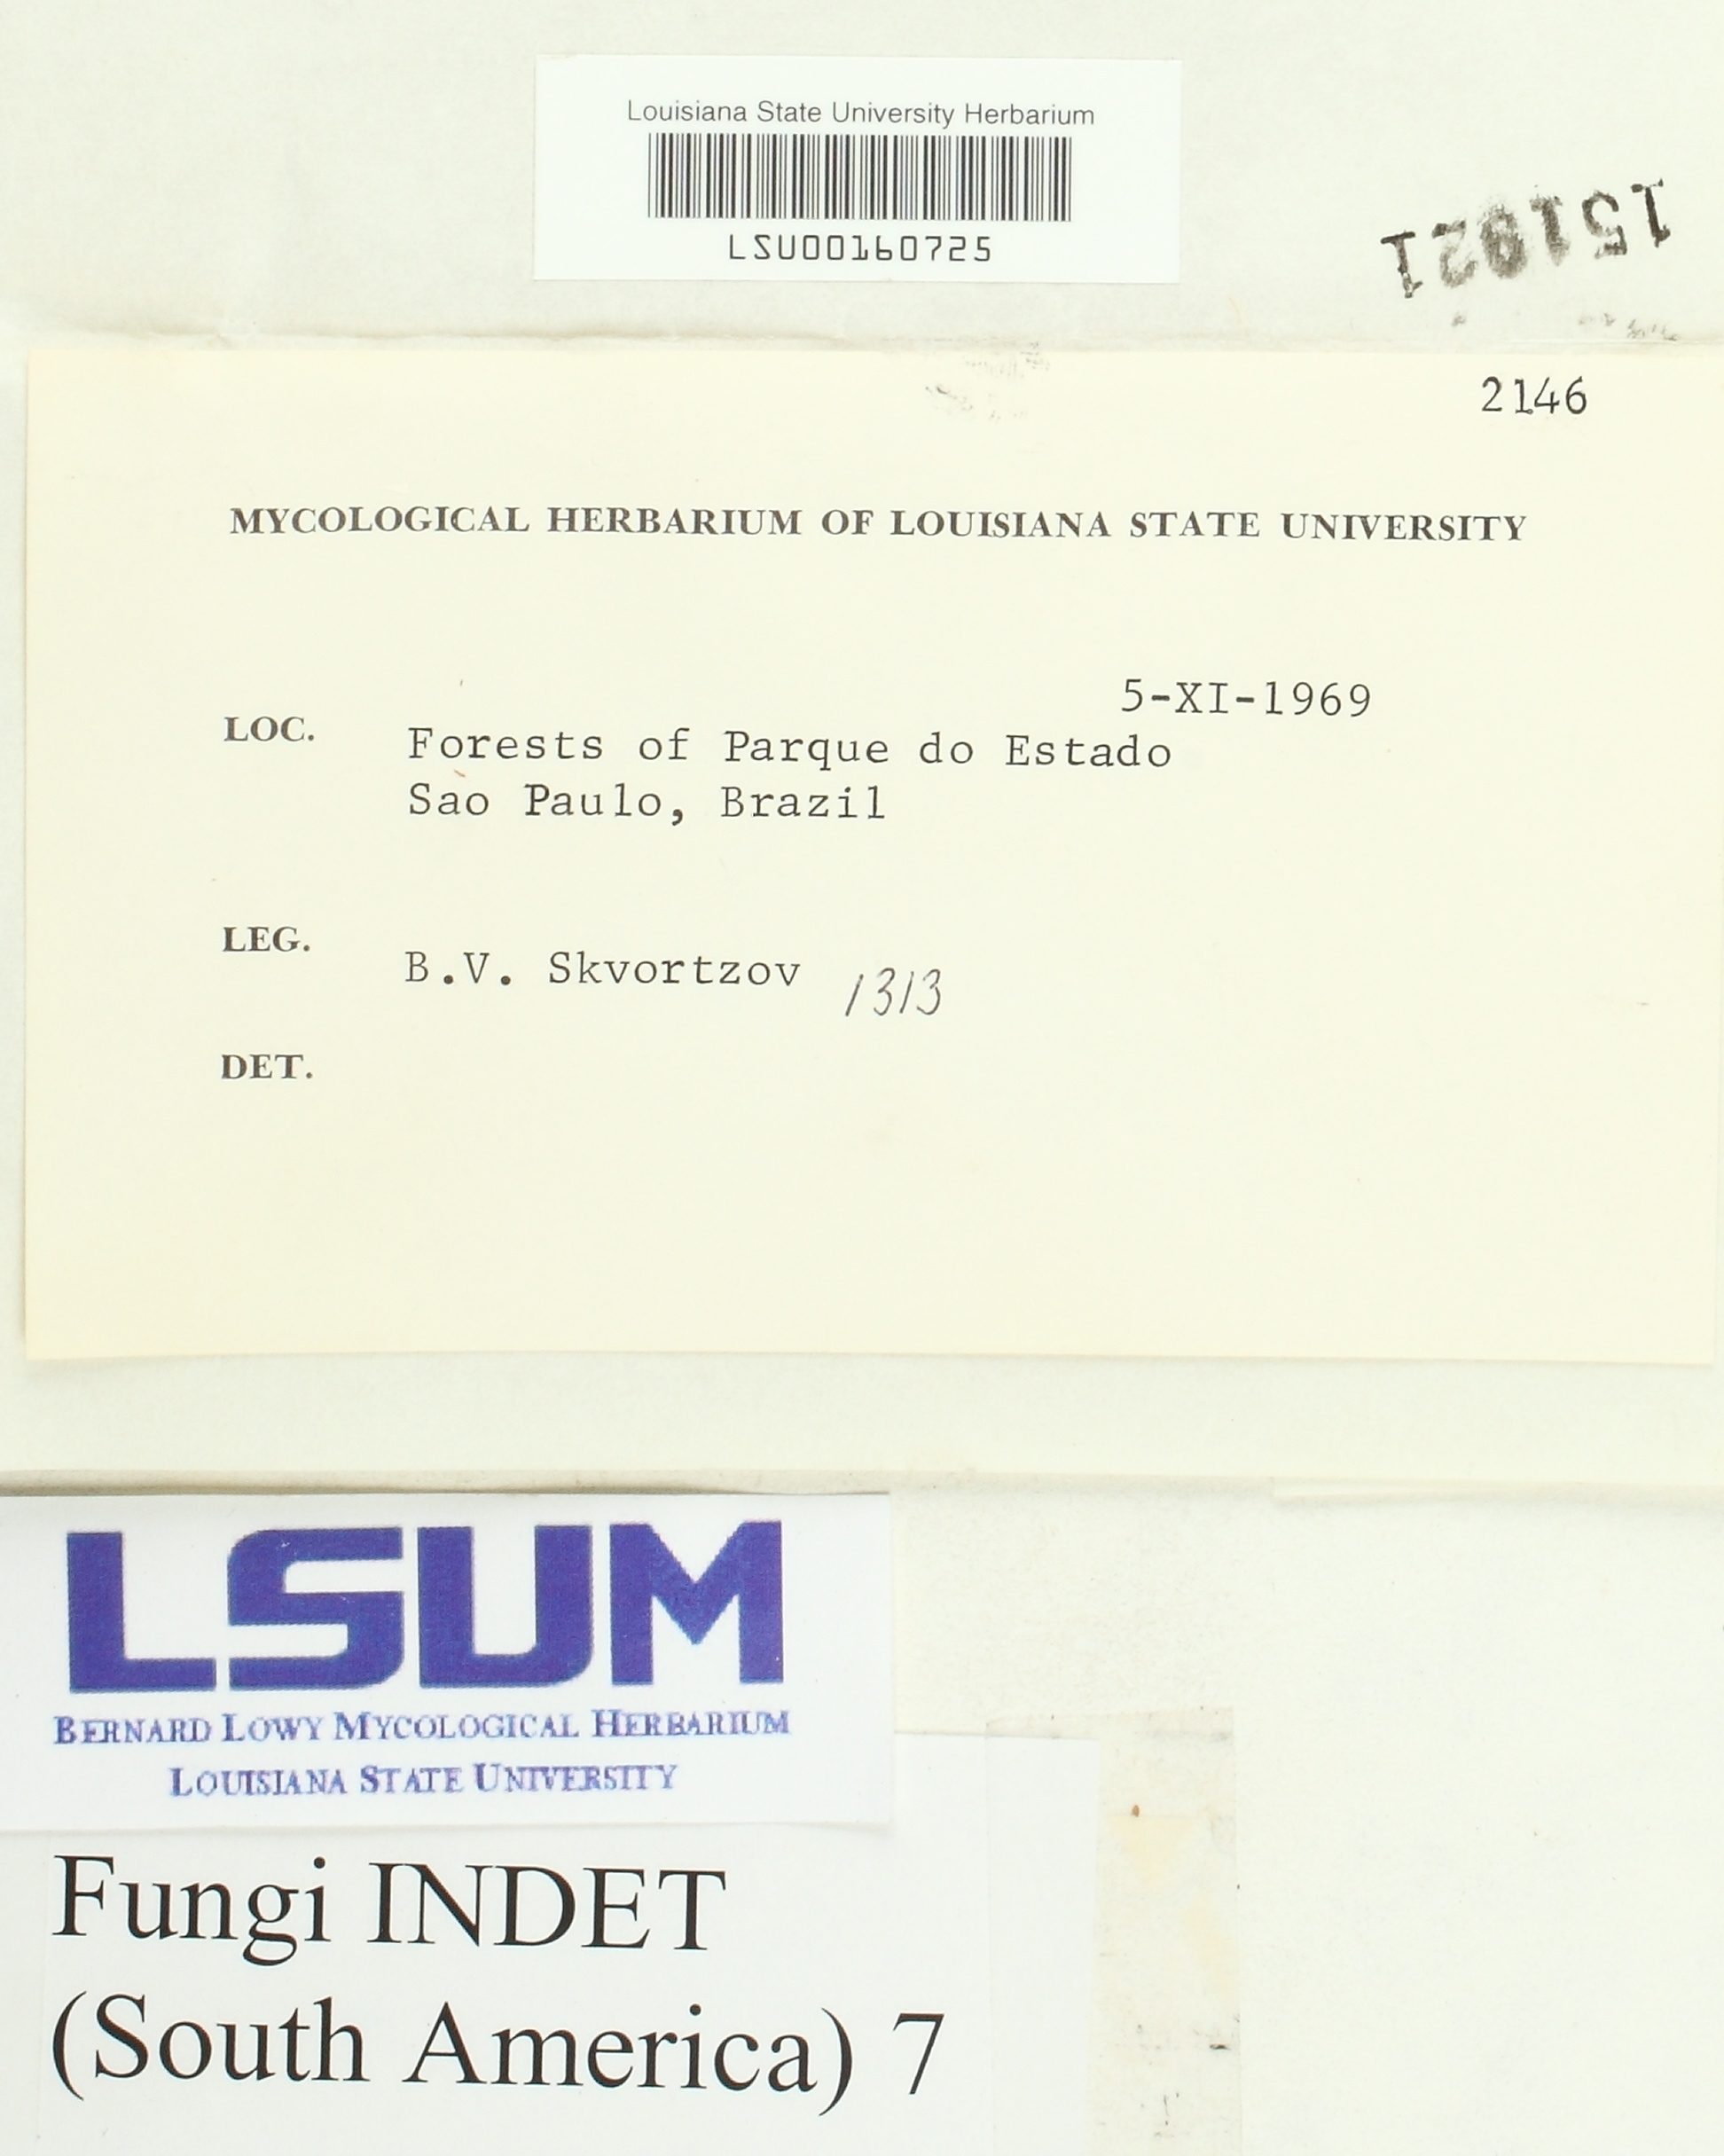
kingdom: Fungi
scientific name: Fungi
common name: Fungi
